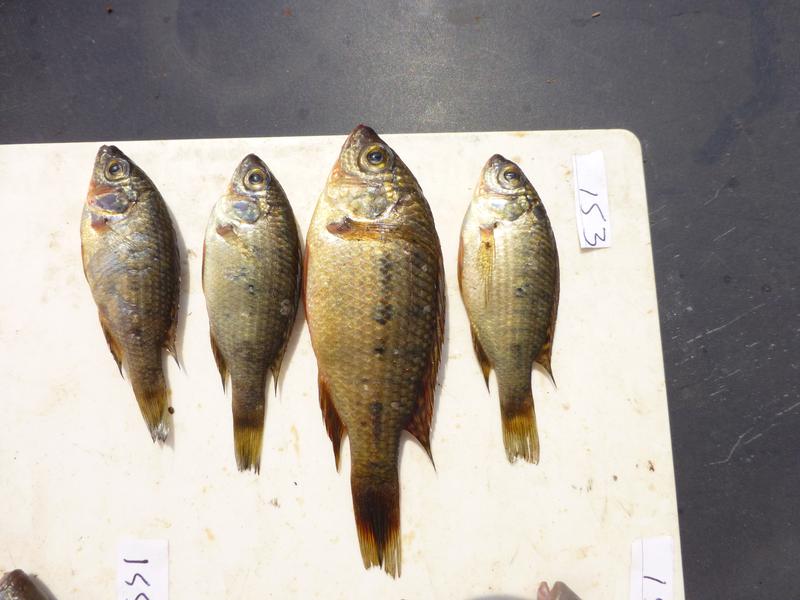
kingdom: Animalia
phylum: Chordata
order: Perciformes
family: Cichlidae
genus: Oreochromis
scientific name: Oreochromis shiranus
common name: Chilwa tilapia
